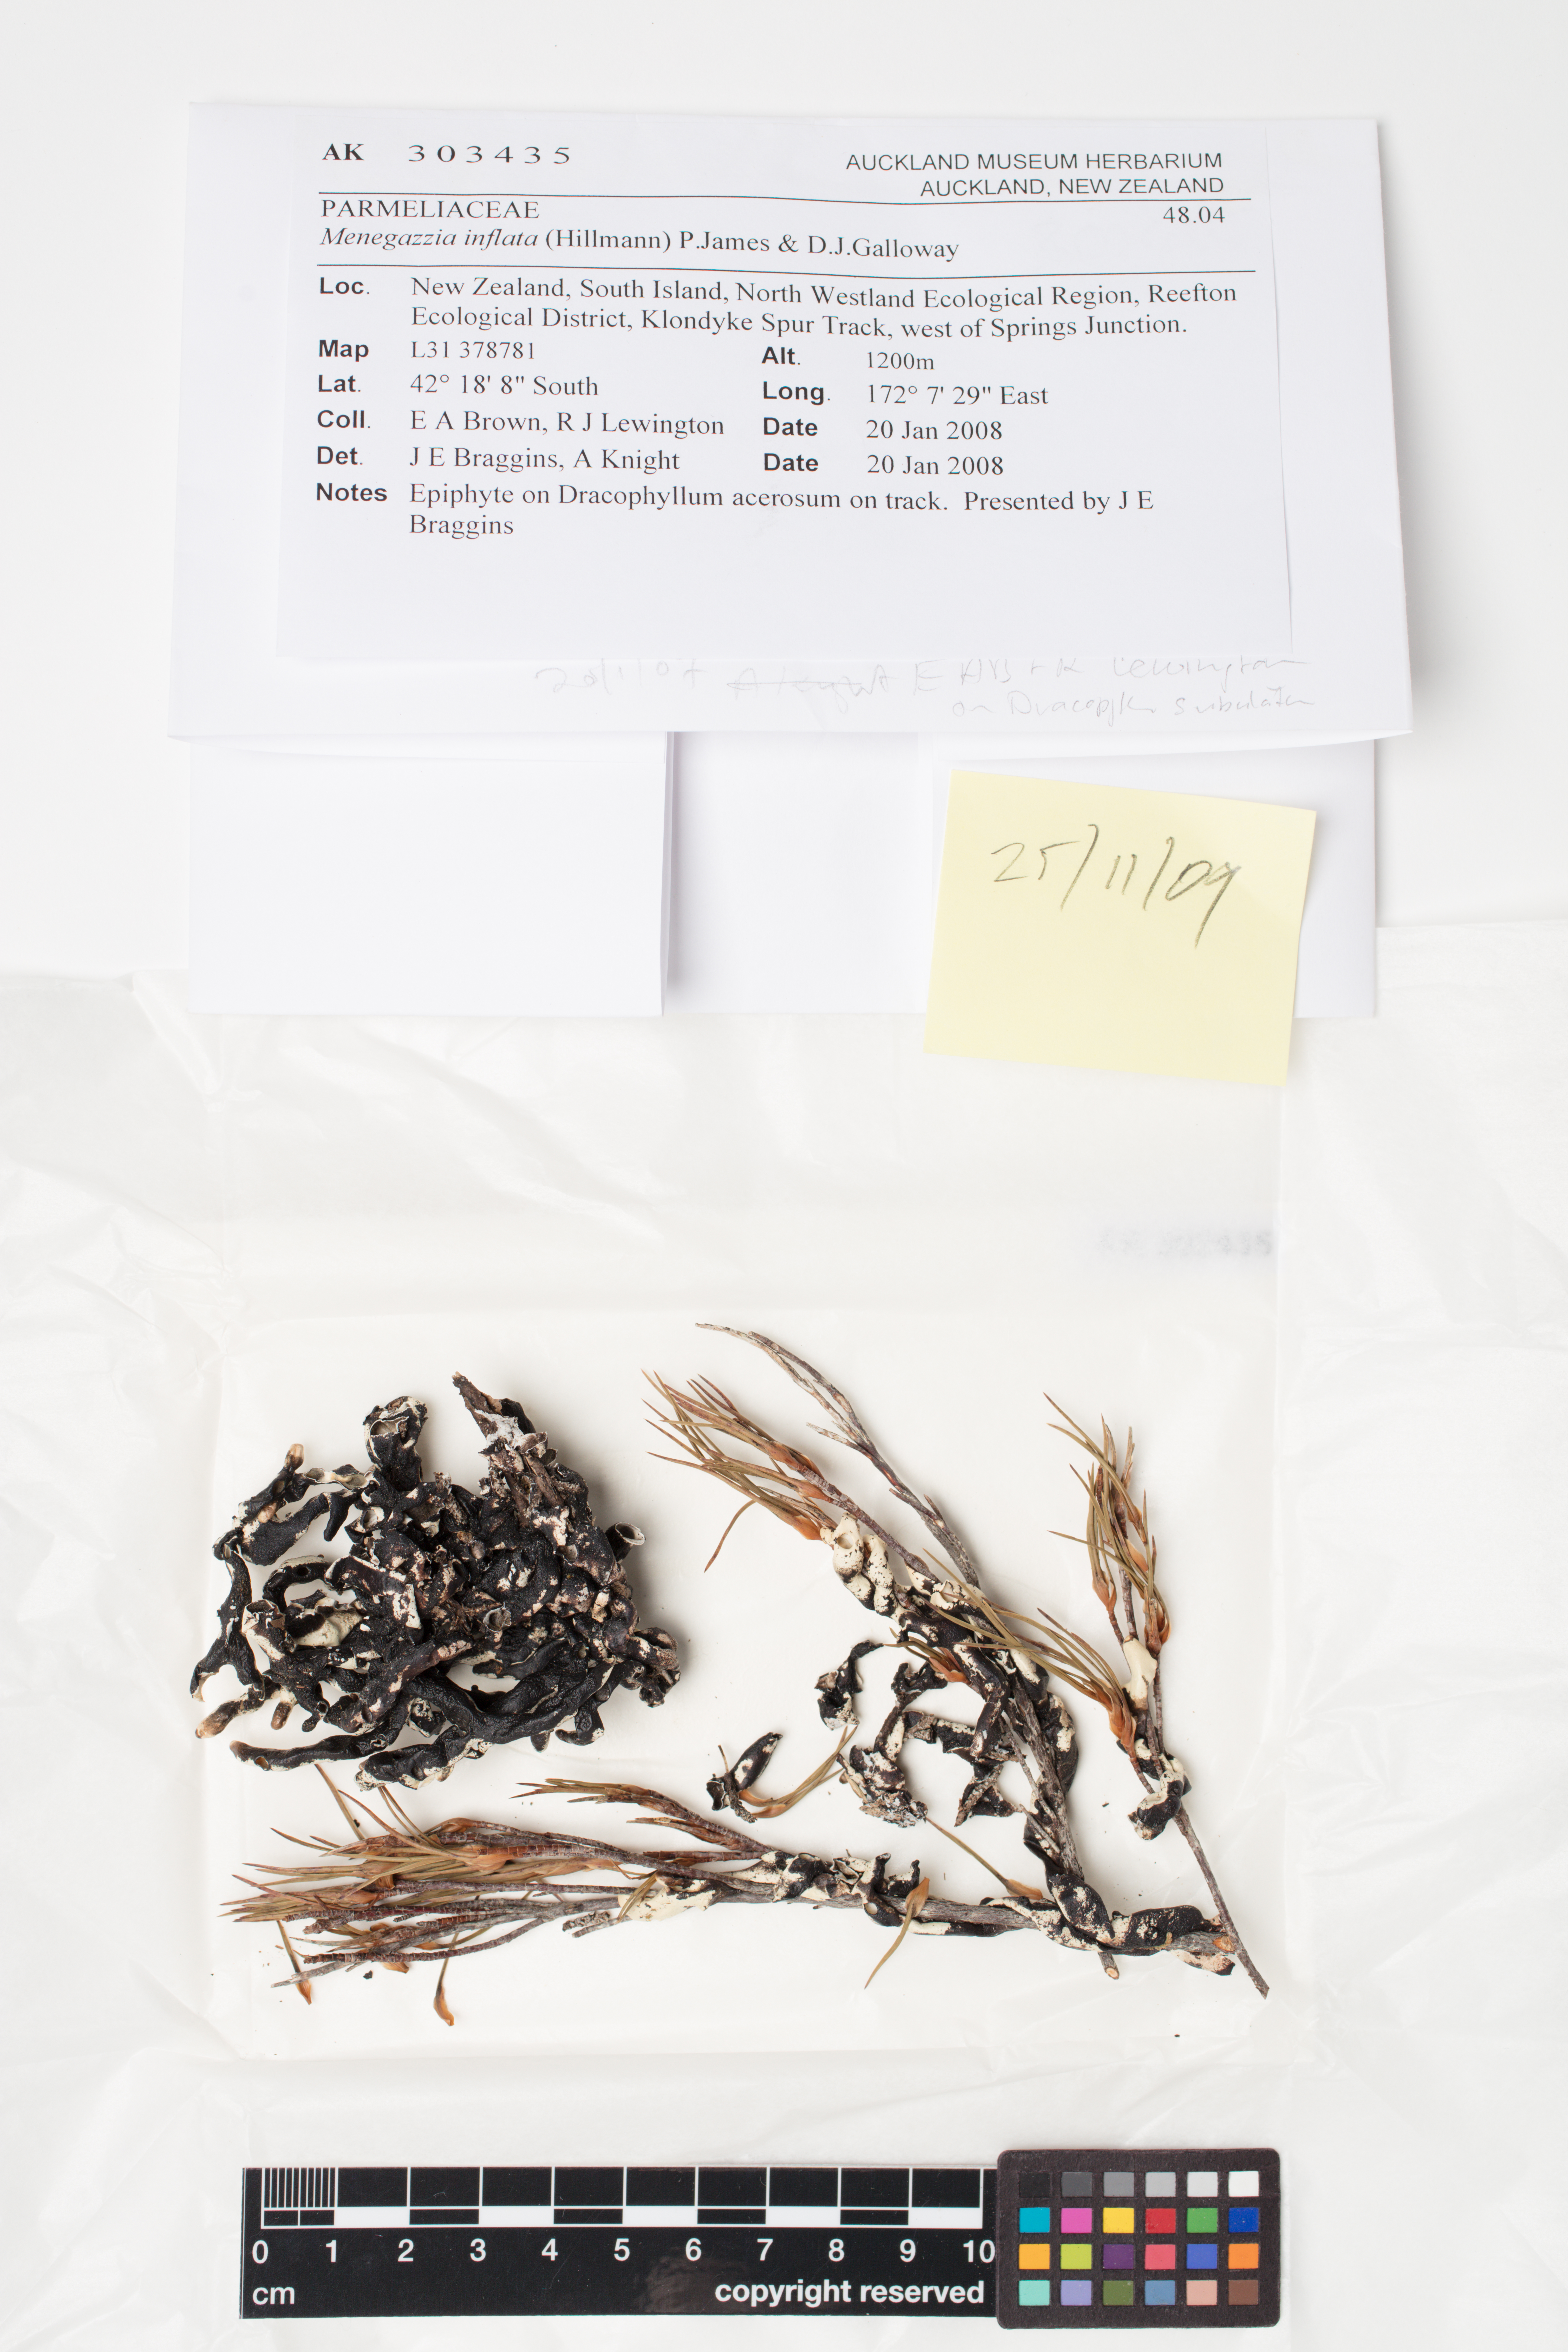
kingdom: Fungi
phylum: Ascomycota
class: Lecanoromycetes
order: Lecanorales
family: Parmeliaceae
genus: Menegazzia
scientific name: Menegazzia
